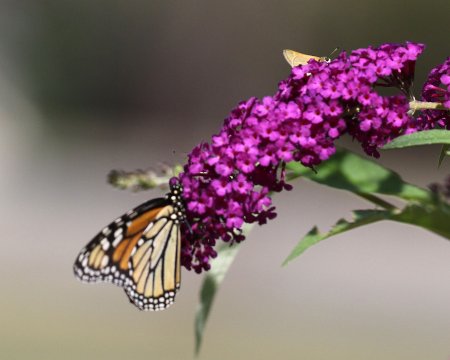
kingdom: Animalia
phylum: Arthropoda
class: Insecta
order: Lepidoptera
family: Nymphalidae
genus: Danaus
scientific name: Danaus plexippus
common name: Monarch
